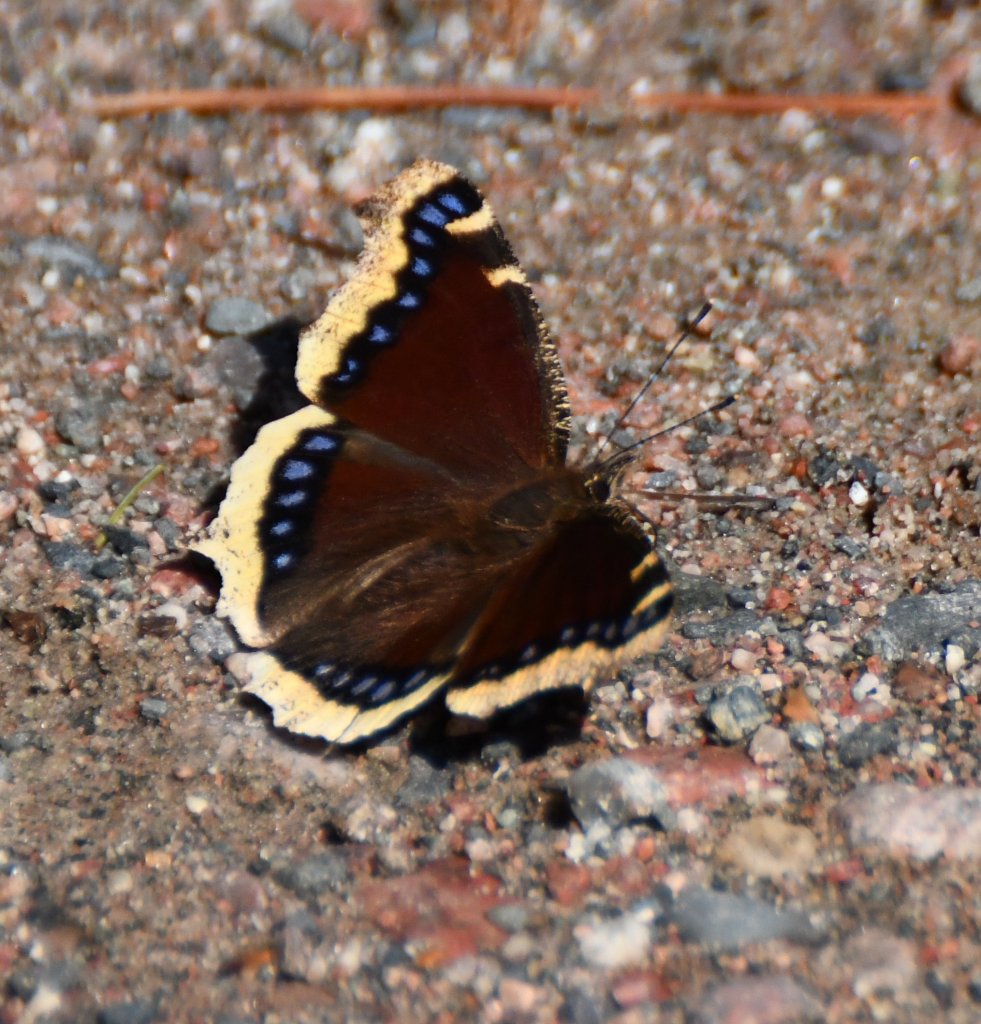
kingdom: Animalia
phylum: Arthropoda
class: Insecta
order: Lepidoptera
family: Nymphalidae
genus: Nymphalis
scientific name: Nymphalis antiopa
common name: Mourning Cloak
